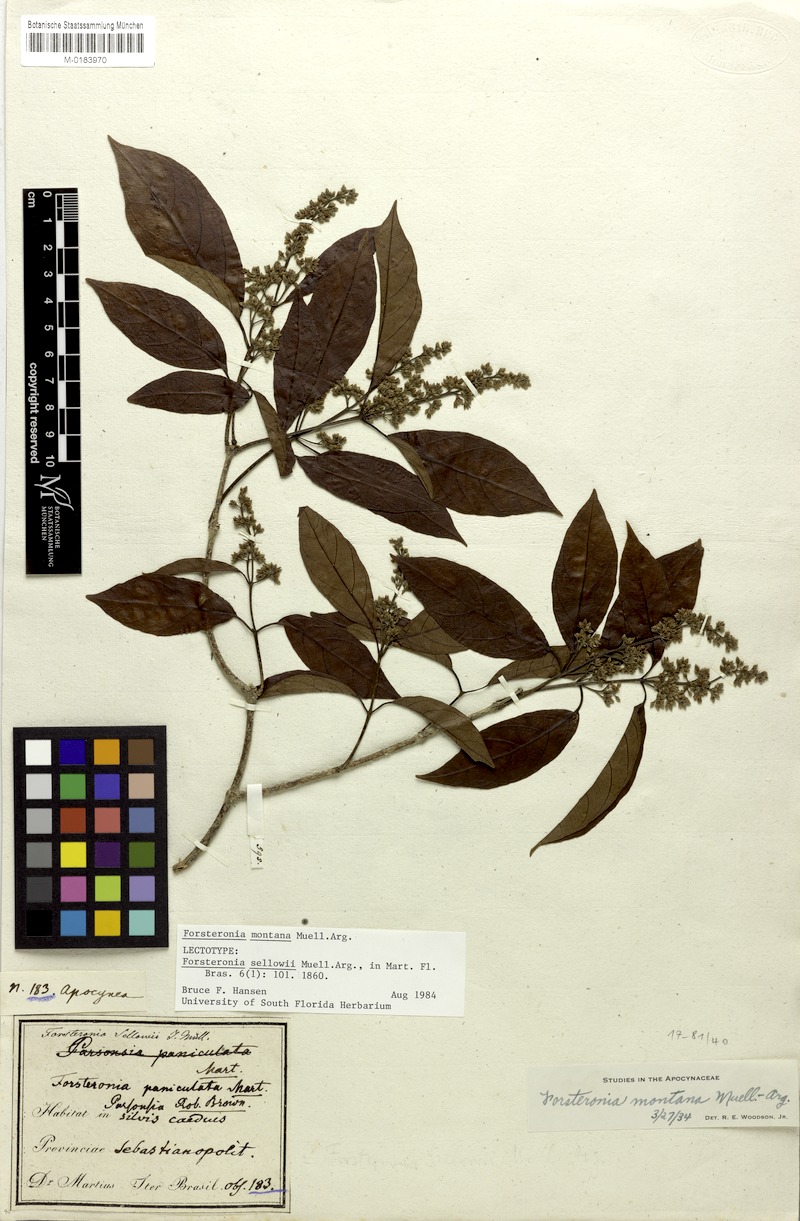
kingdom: Plantae
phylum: Tracheophyta
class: Magnoliopsida
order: Gentianales
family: Apocynaceae
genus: Forsteronia
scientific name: Forsteronia montana
